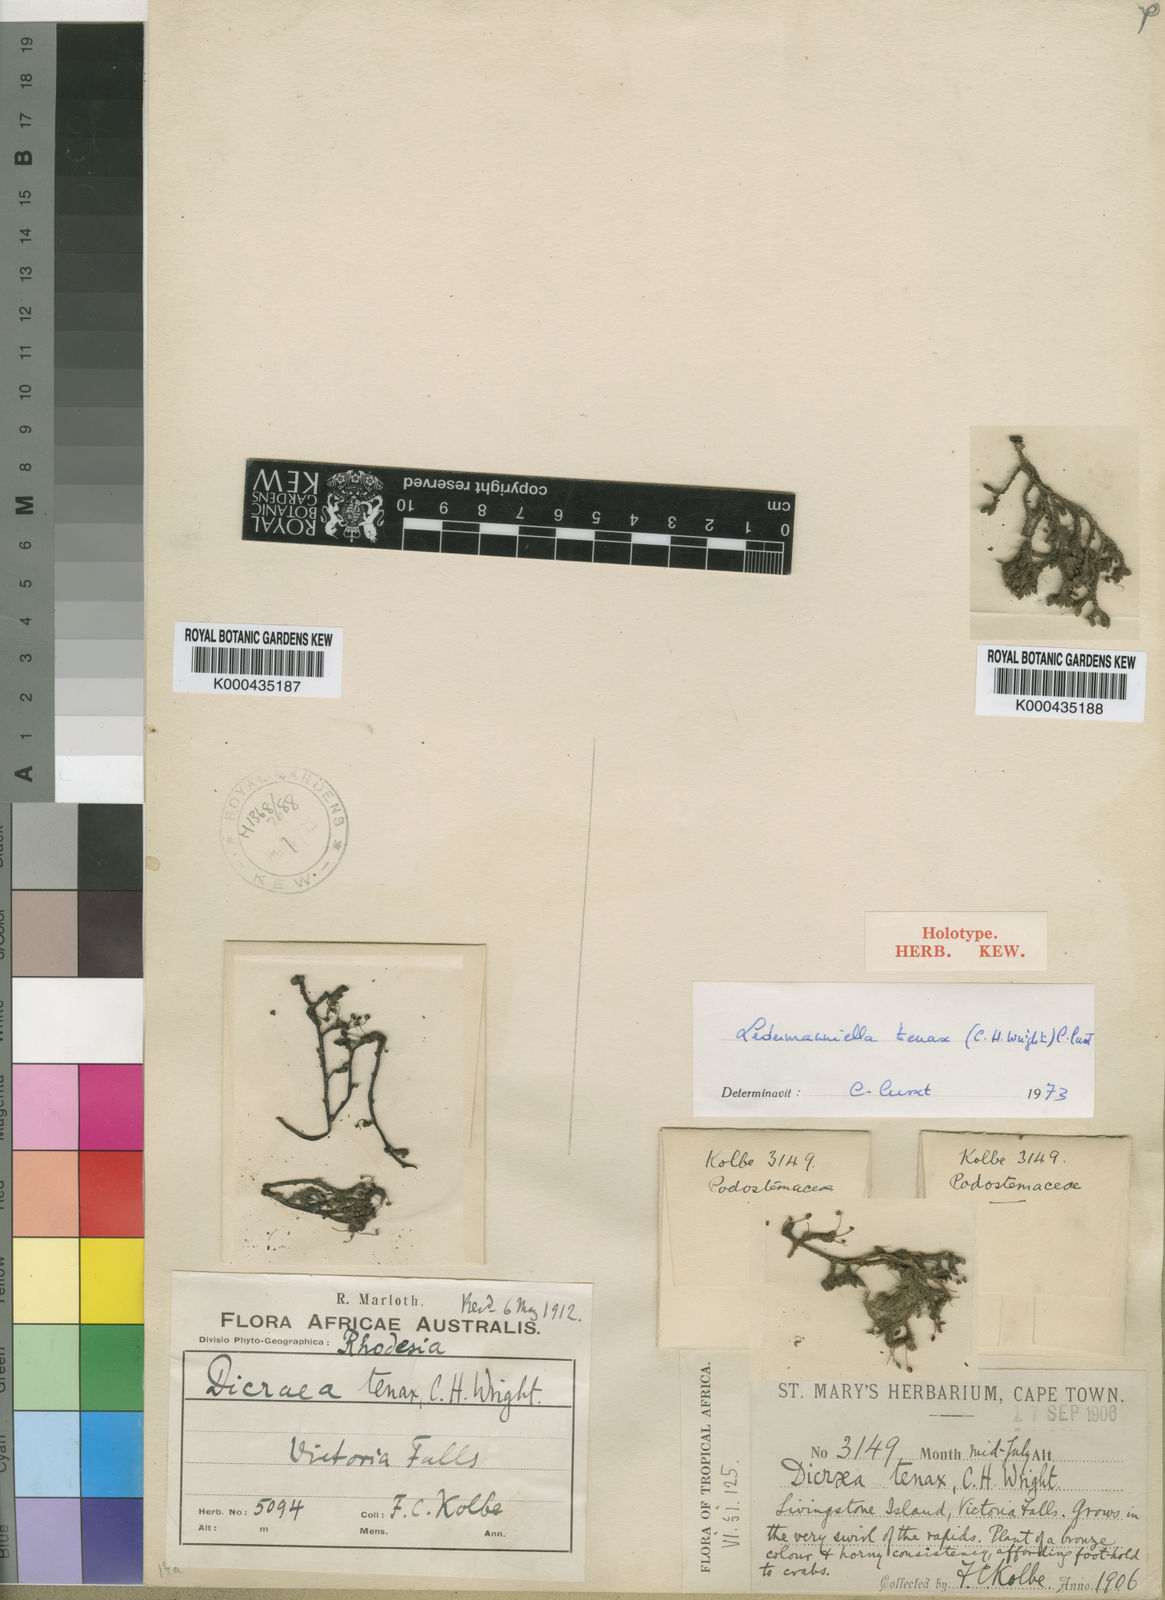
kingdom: Plantae
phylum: Tracheophyta
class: Magnoliopsida
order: Malpighiales
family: Podostemaceae
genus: Inversodicraea
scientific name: Inversodicraea tenax
